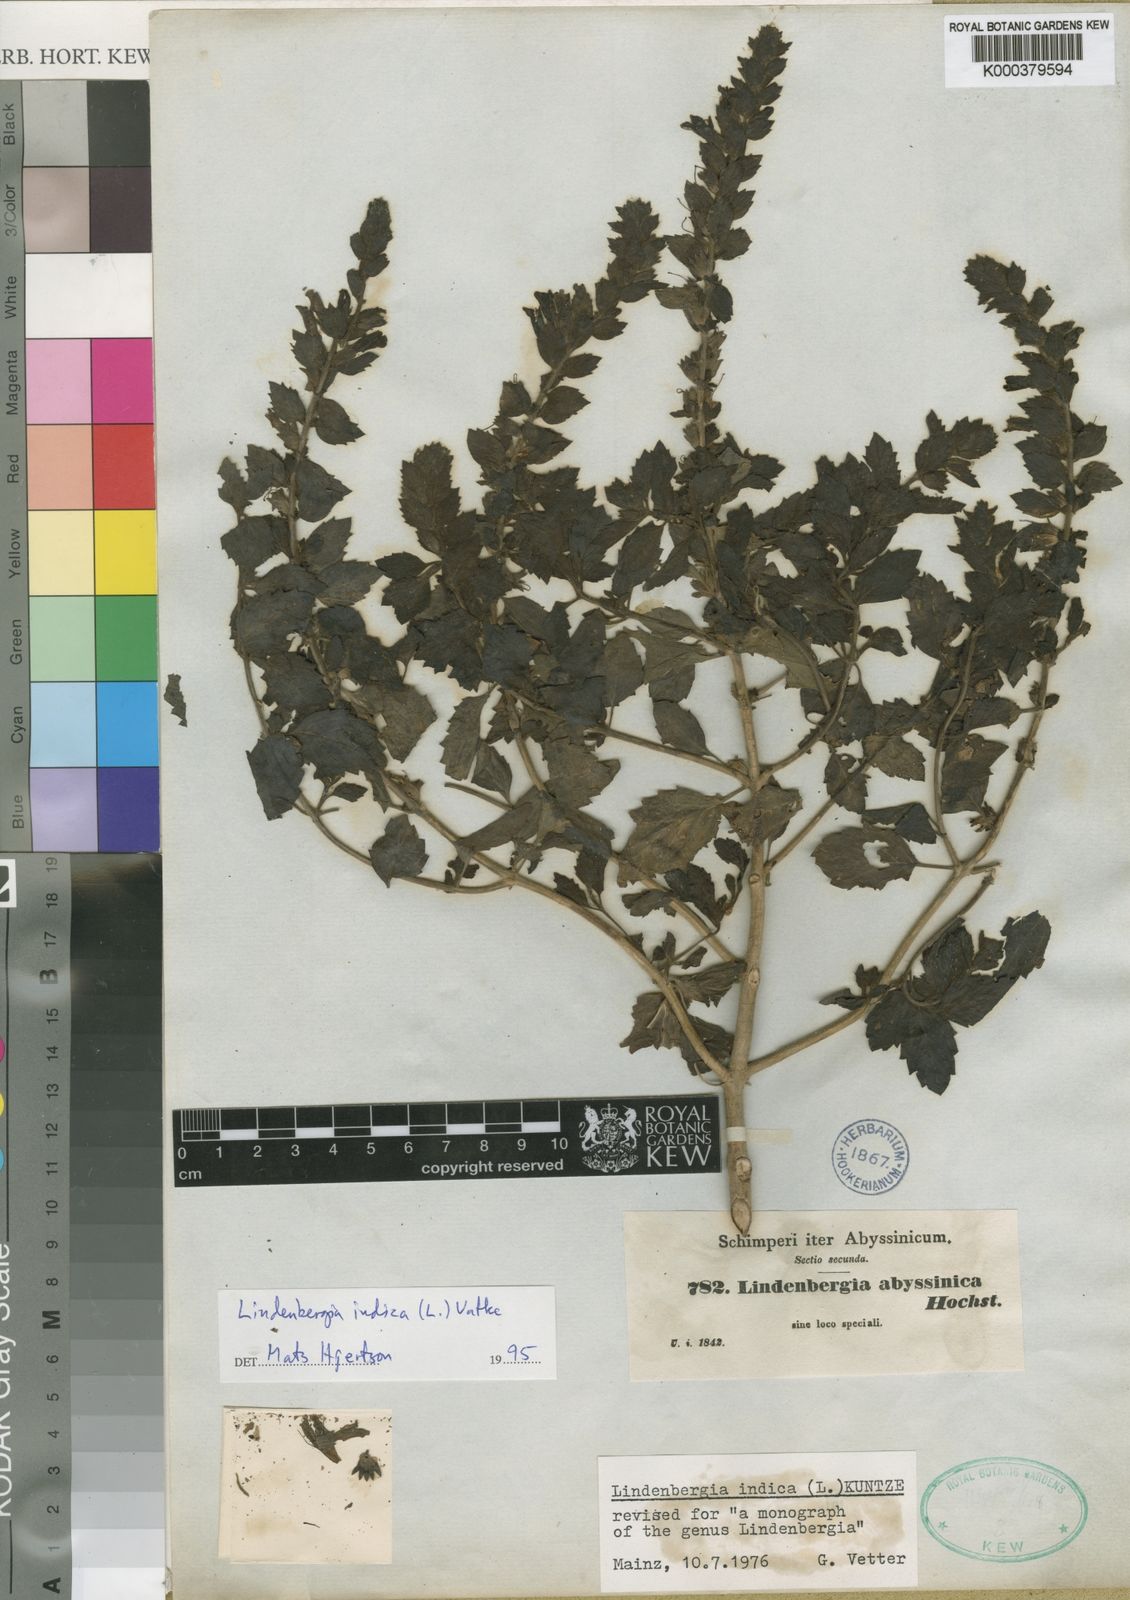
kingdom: Plantae
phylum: Tracheophyta
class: Magnoliopsida
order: Lamiales
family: Orobanchaceae
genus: Lindenbergia
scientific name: Lindenbergia indica
